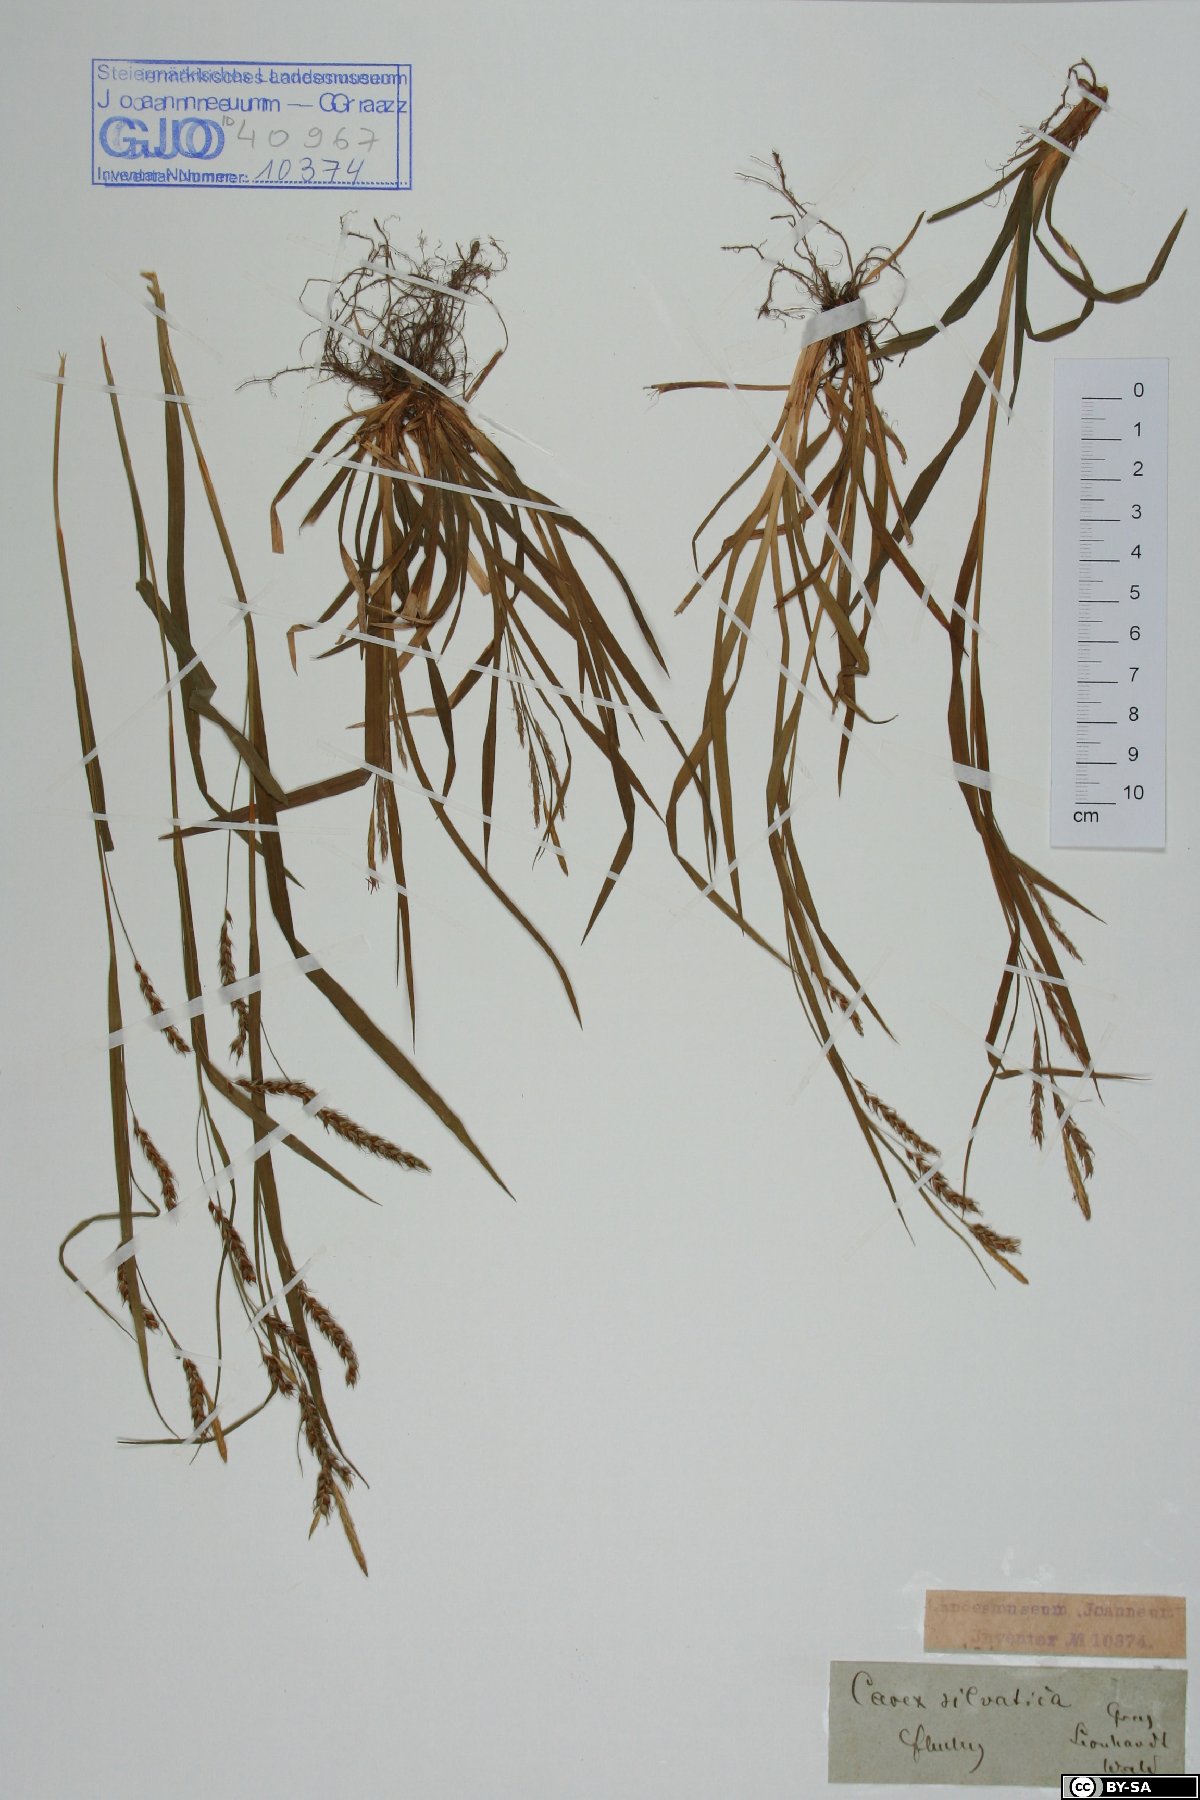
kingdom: Plantae
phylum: Tracheophyta
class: Liliopsida
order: Poales
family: Cyperaceae
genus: Carex
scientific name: Carex sylvatica
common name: Wood-sedge
